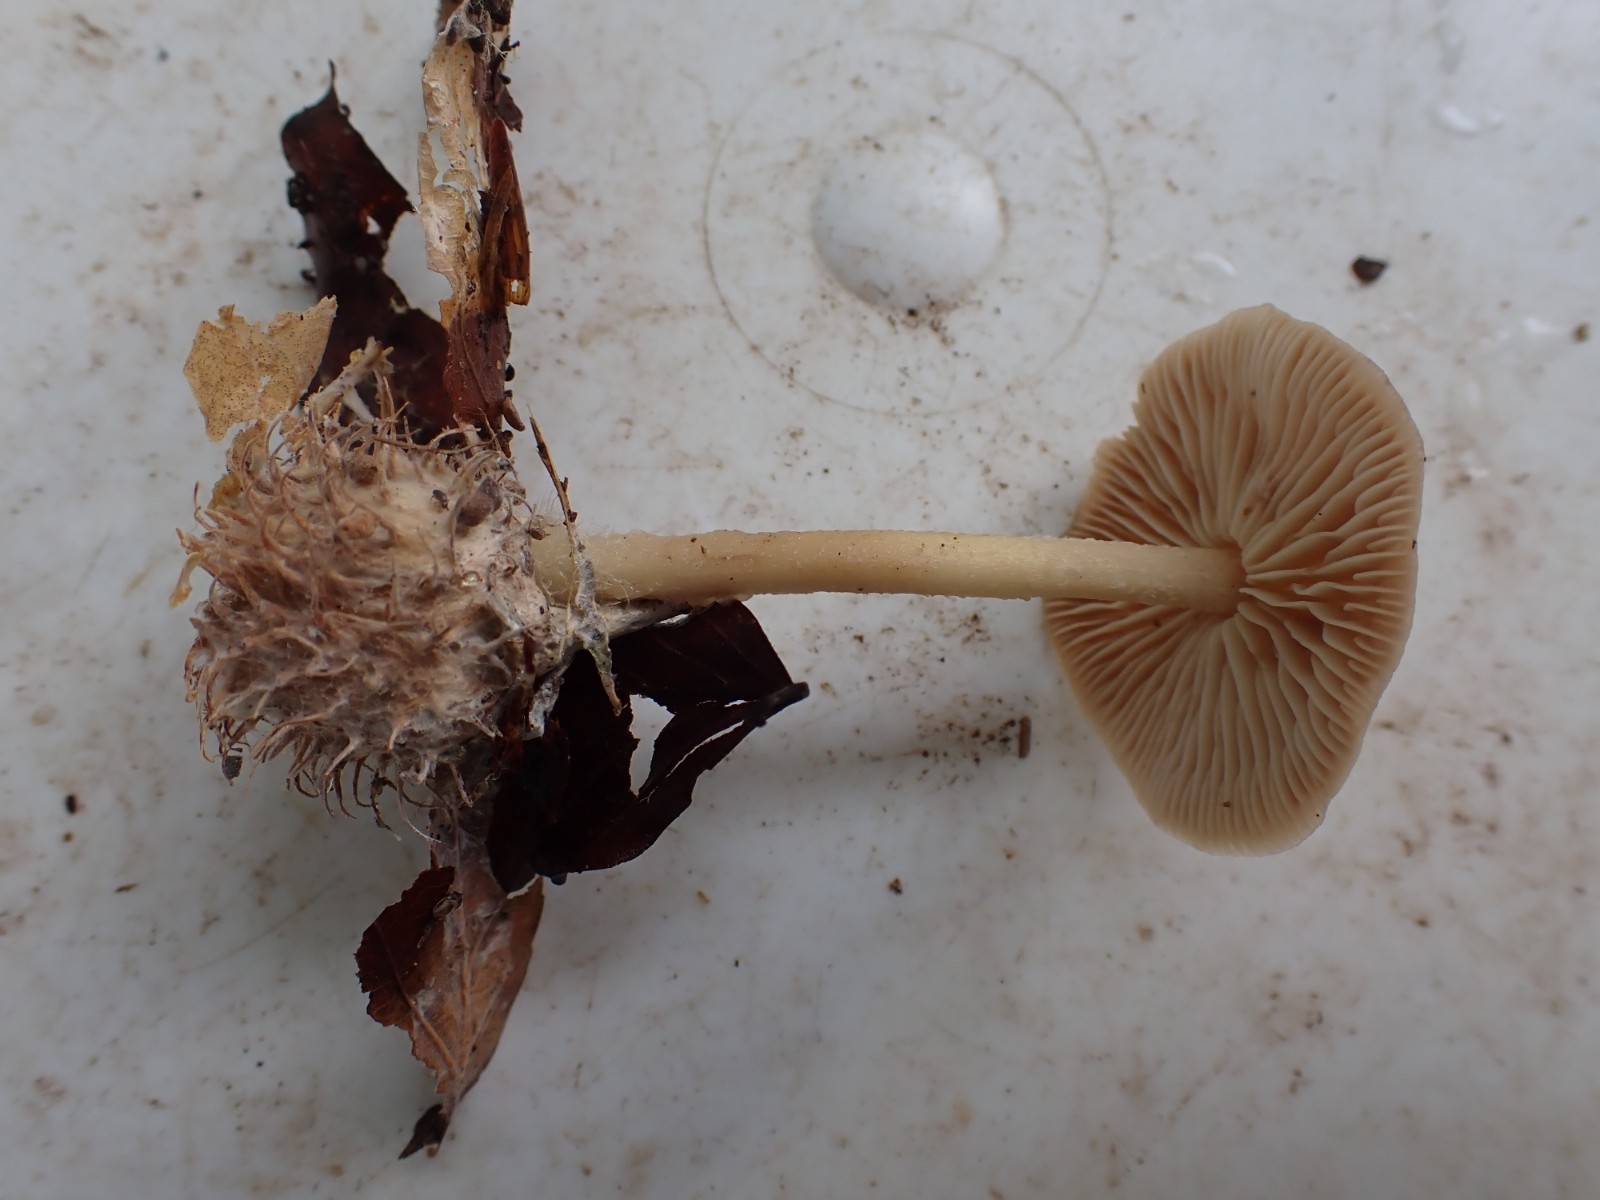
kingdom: Fungi
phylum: Basidiomycota
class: Agaricomycetes
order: Agaricales
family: Omphalotaceae
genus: Collybiopsis
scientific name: Collybiopsis peronata
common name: bestøvlet fladhat
